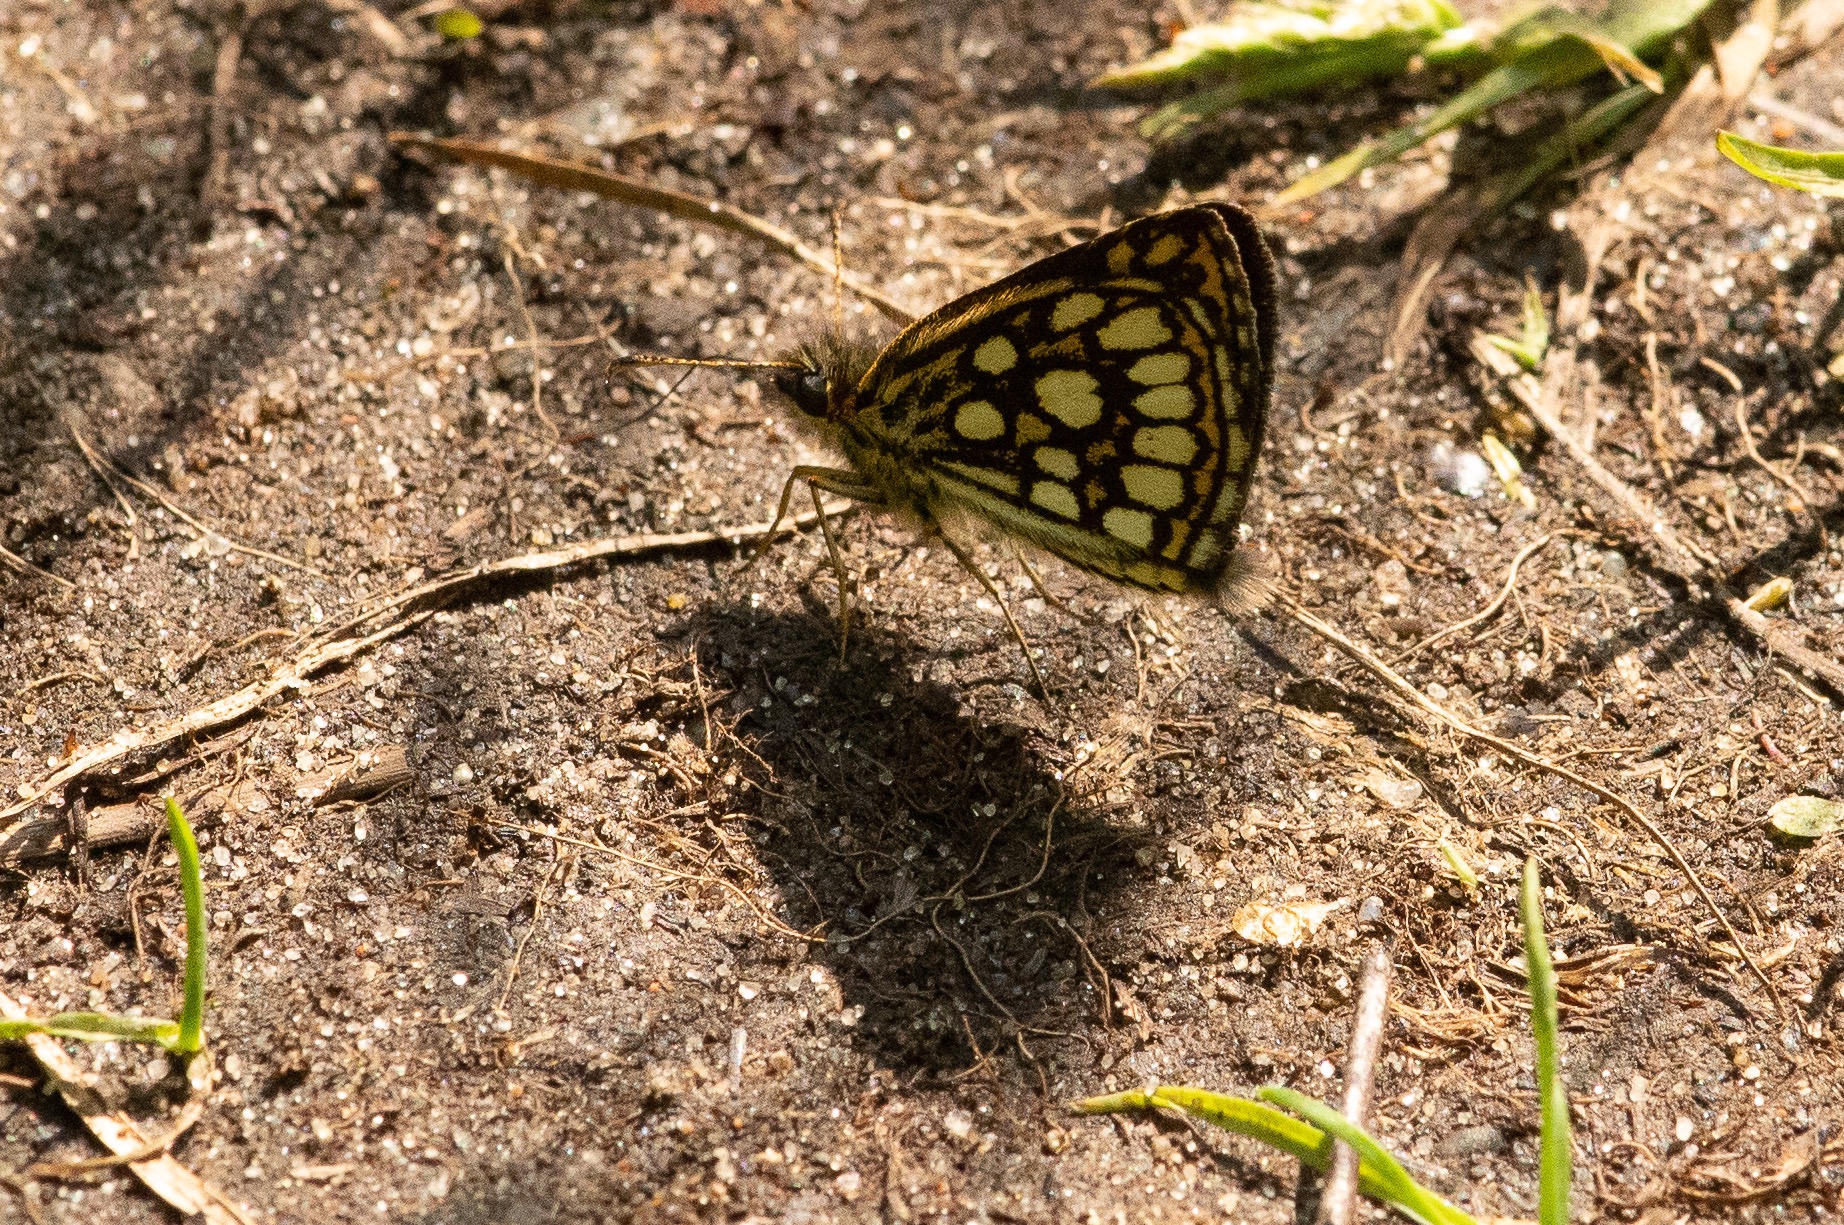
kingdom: Animalia
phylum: Arthropoda
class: Insecta
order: Lepidoptera
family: Hesperiidae
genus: Heteropterus
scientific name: Heteropterus morpheus
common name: Spejlbredpande
